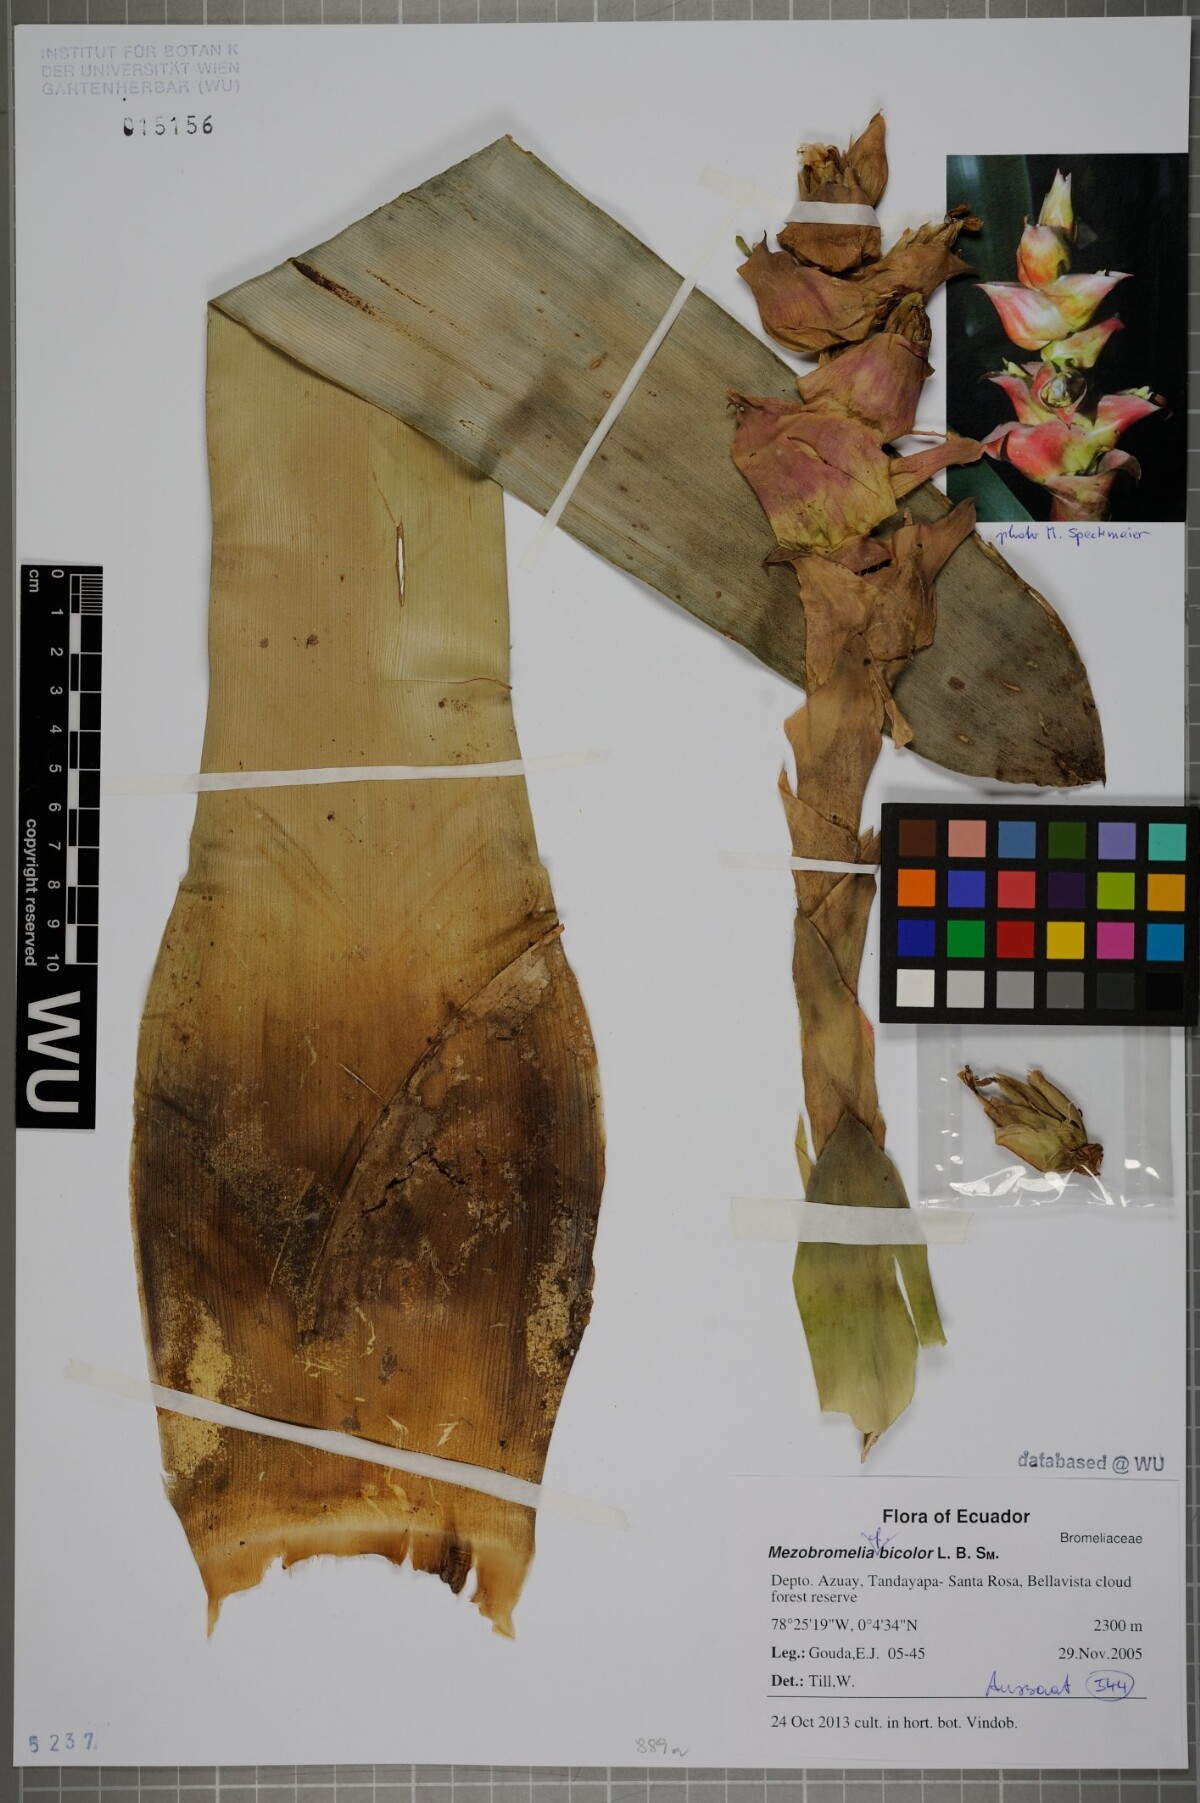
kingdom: Plantae
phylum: Tracheophyta
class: Liliopsida
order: Poales
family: Bromeliaceae
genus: Guzmania
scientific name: Guzmania variegata
